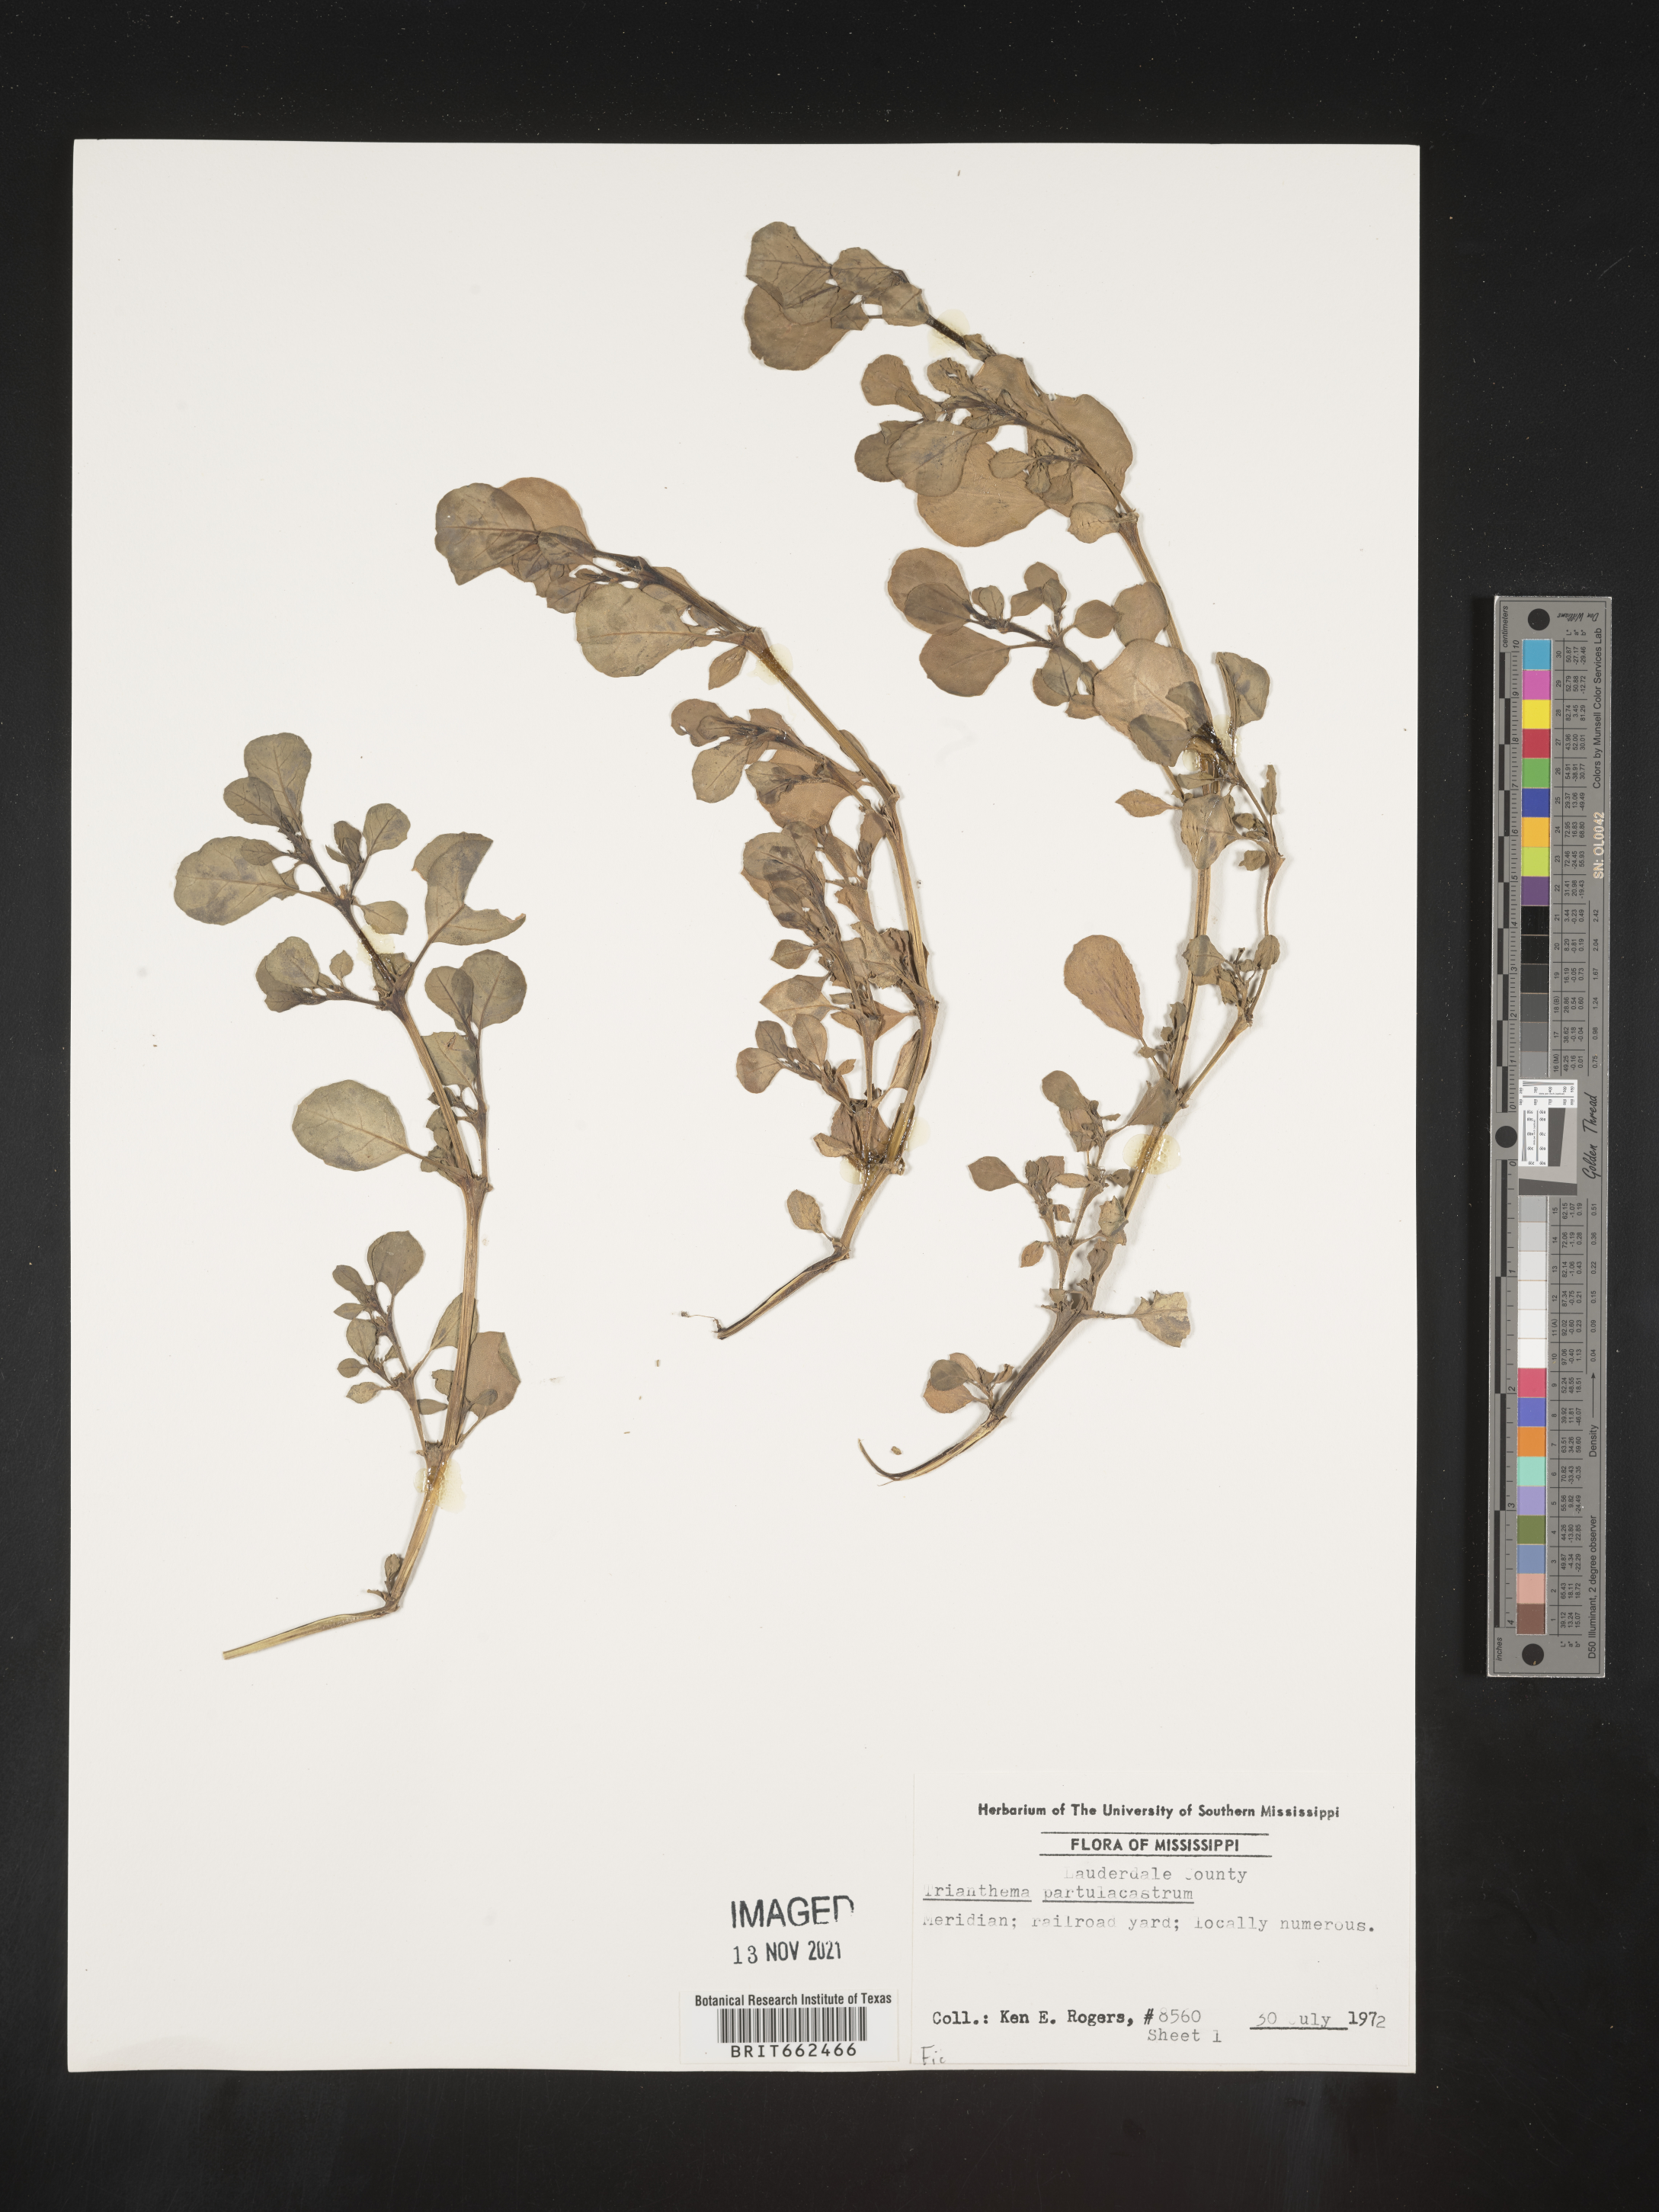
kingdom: Plantae
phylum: Tracheophyta
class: Magnoliopsida
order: Caryophyllales
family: Aizoaceae
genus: Trianthema
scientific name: Trianthema
